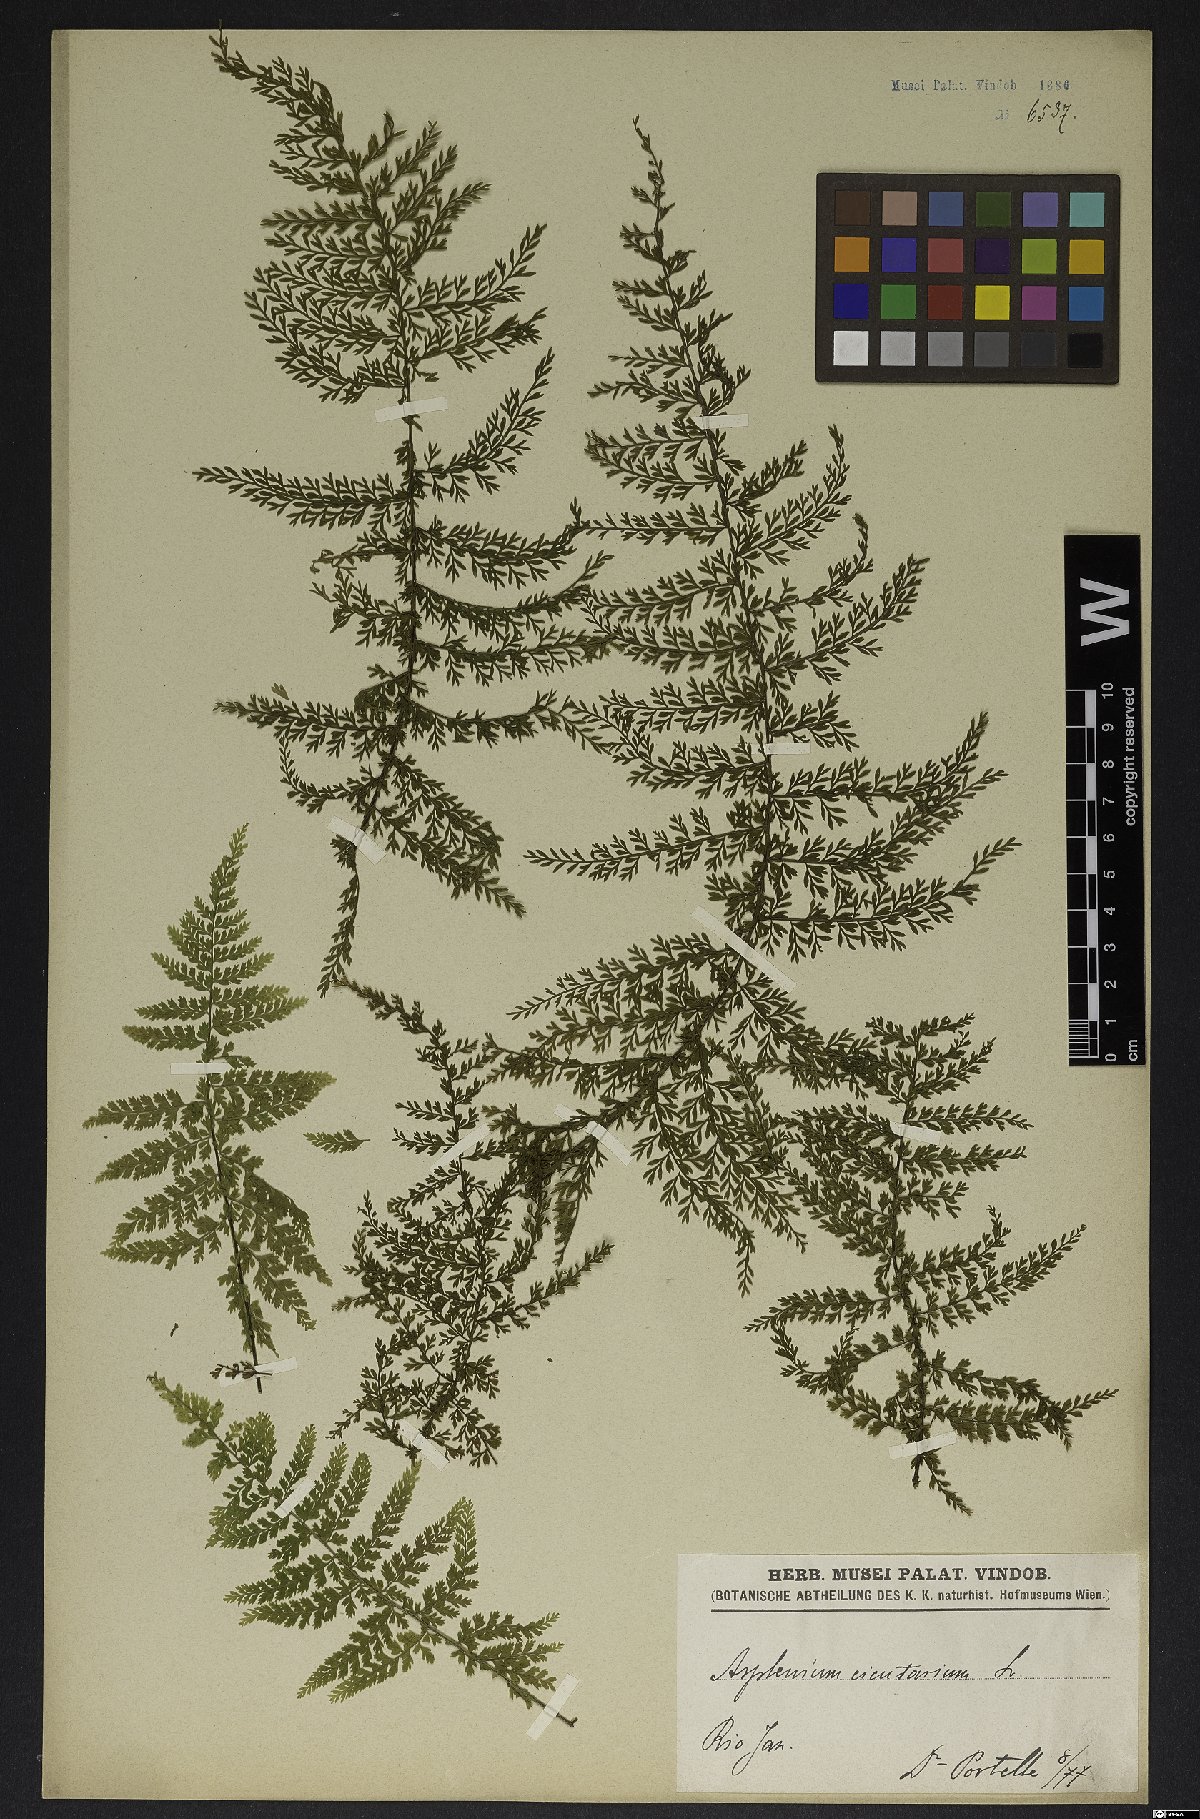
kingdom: Plantae
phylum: Tracheophyta
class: Polypodiopsida
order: Polypodiales
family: Aspleniaceae
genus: Asplenium
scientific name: Asplenium cristatum
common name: Parsley spleenwort
